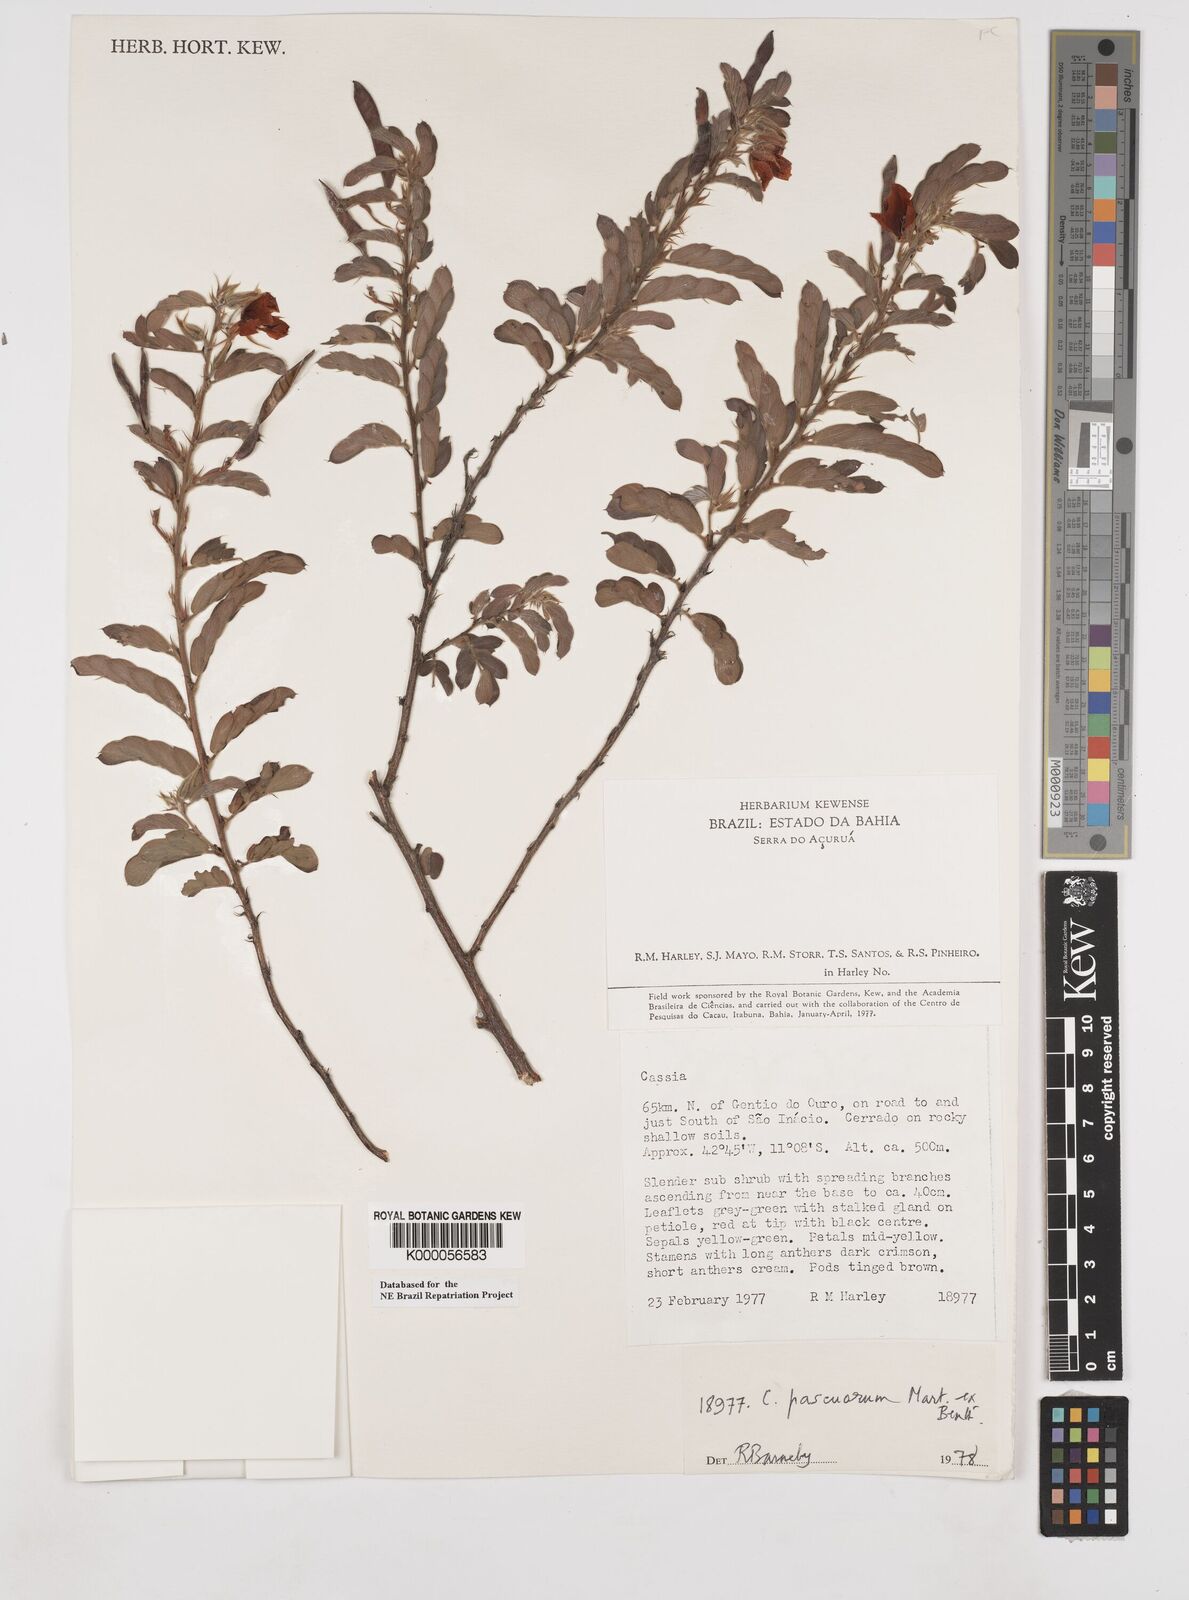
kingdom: Plantae
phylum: Tracheophyta
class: Magnoliopsida
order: Fabales
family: Fabaceae
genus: Chamaecrista
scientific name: Chamaecrista pascuorum
